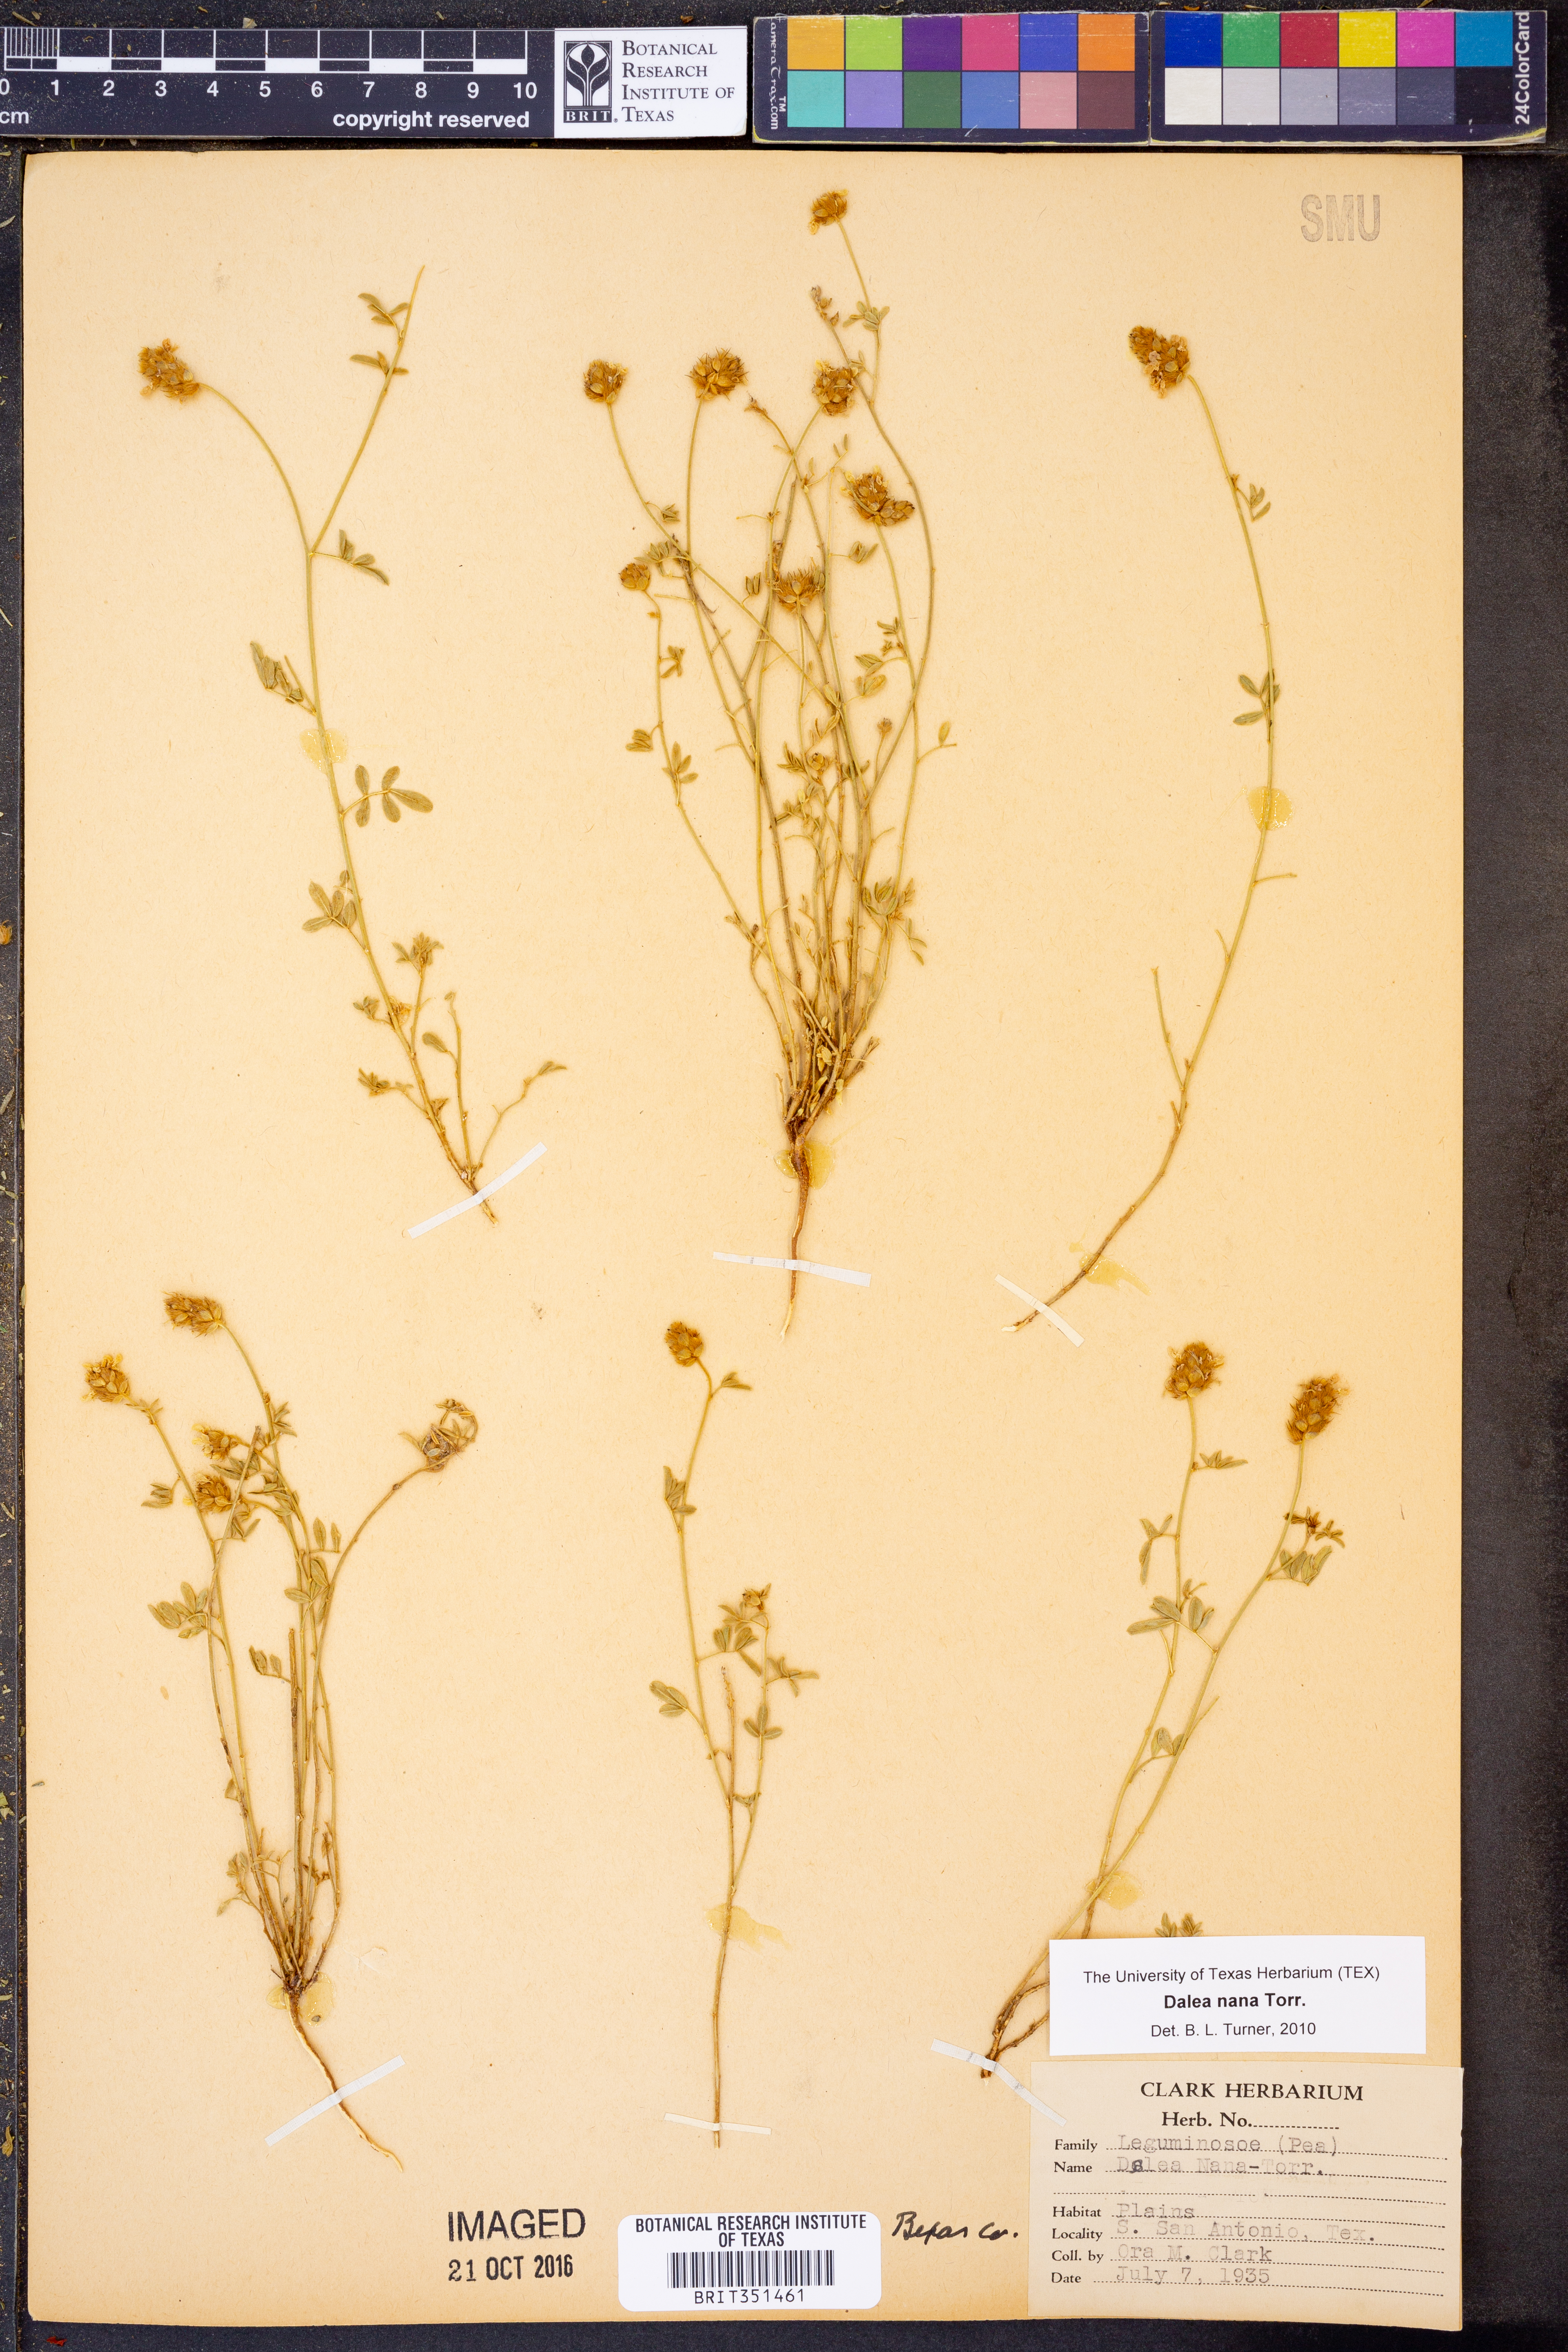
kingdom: Plantae
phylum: Tracheophyta
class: Magnoliopsida
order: Fabales
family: Fabaceae
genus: Dalea
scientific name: Dalea nana
